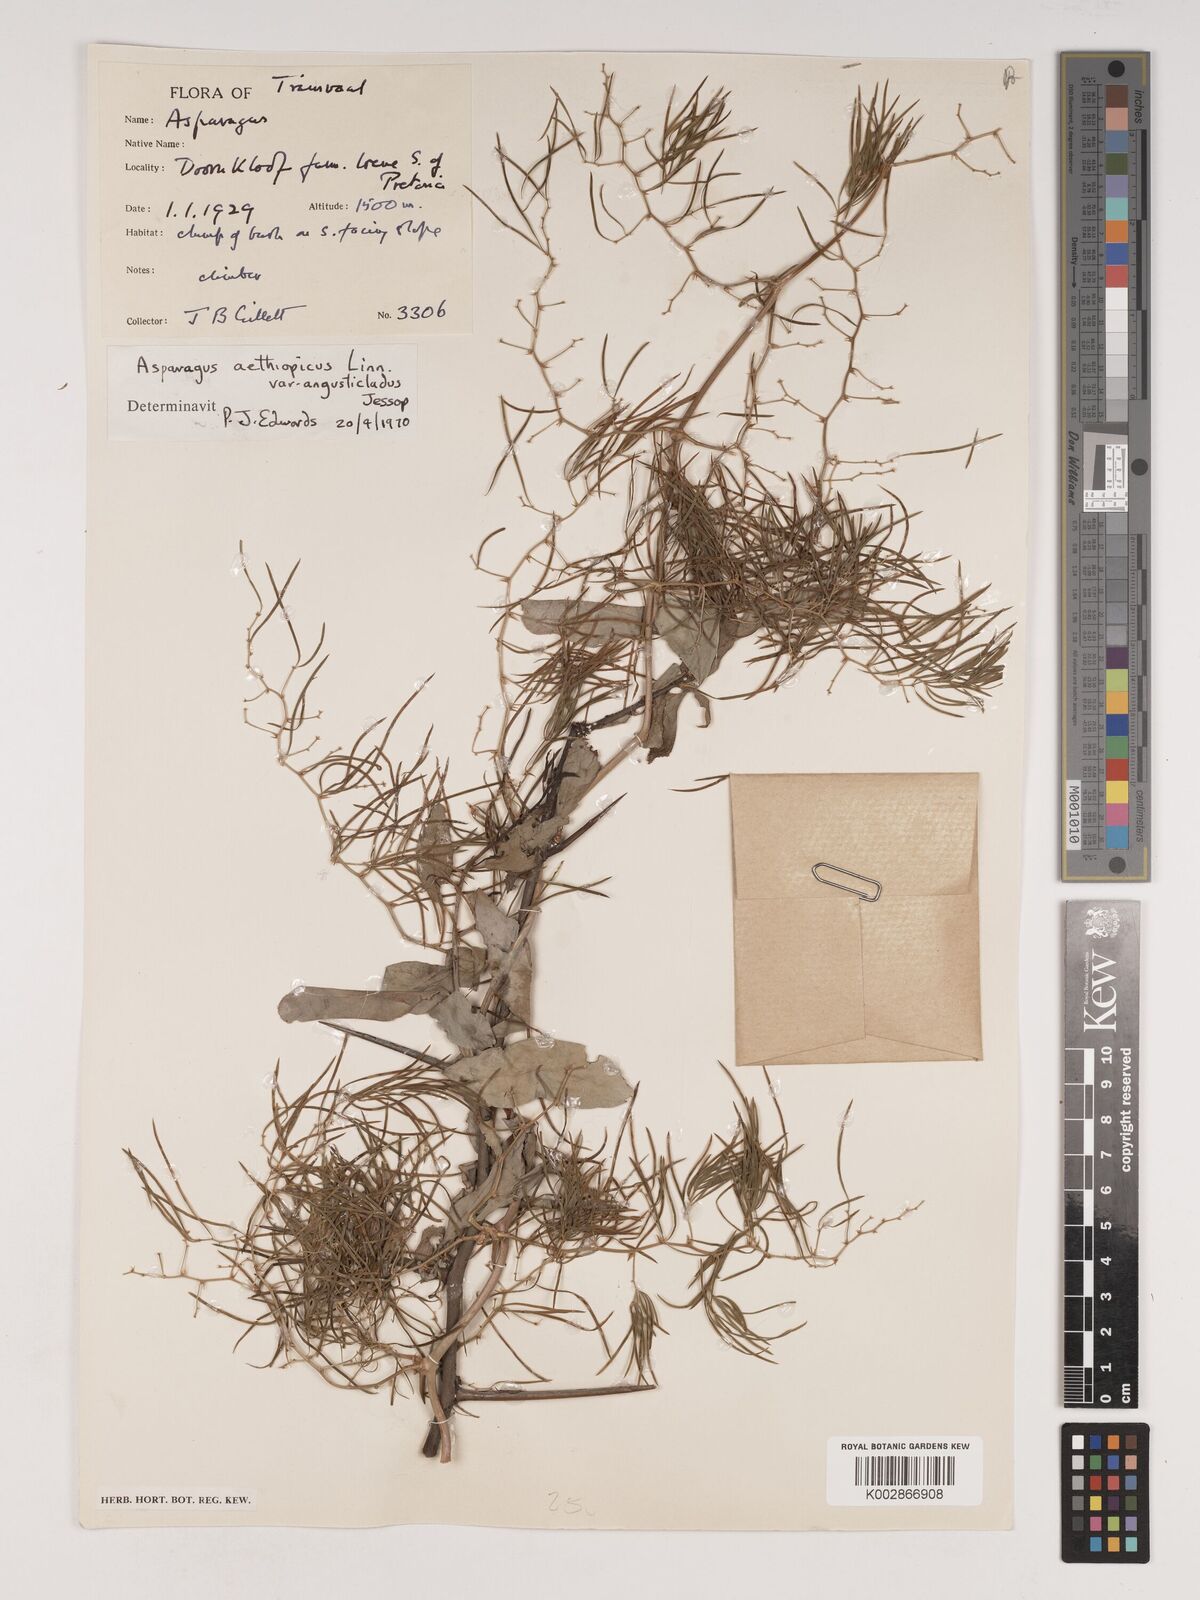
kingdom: Plantae
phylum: Tracheophyta
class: Liliopsida
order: Asparagales
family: Asparagaceae
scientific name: Asparagaceae
